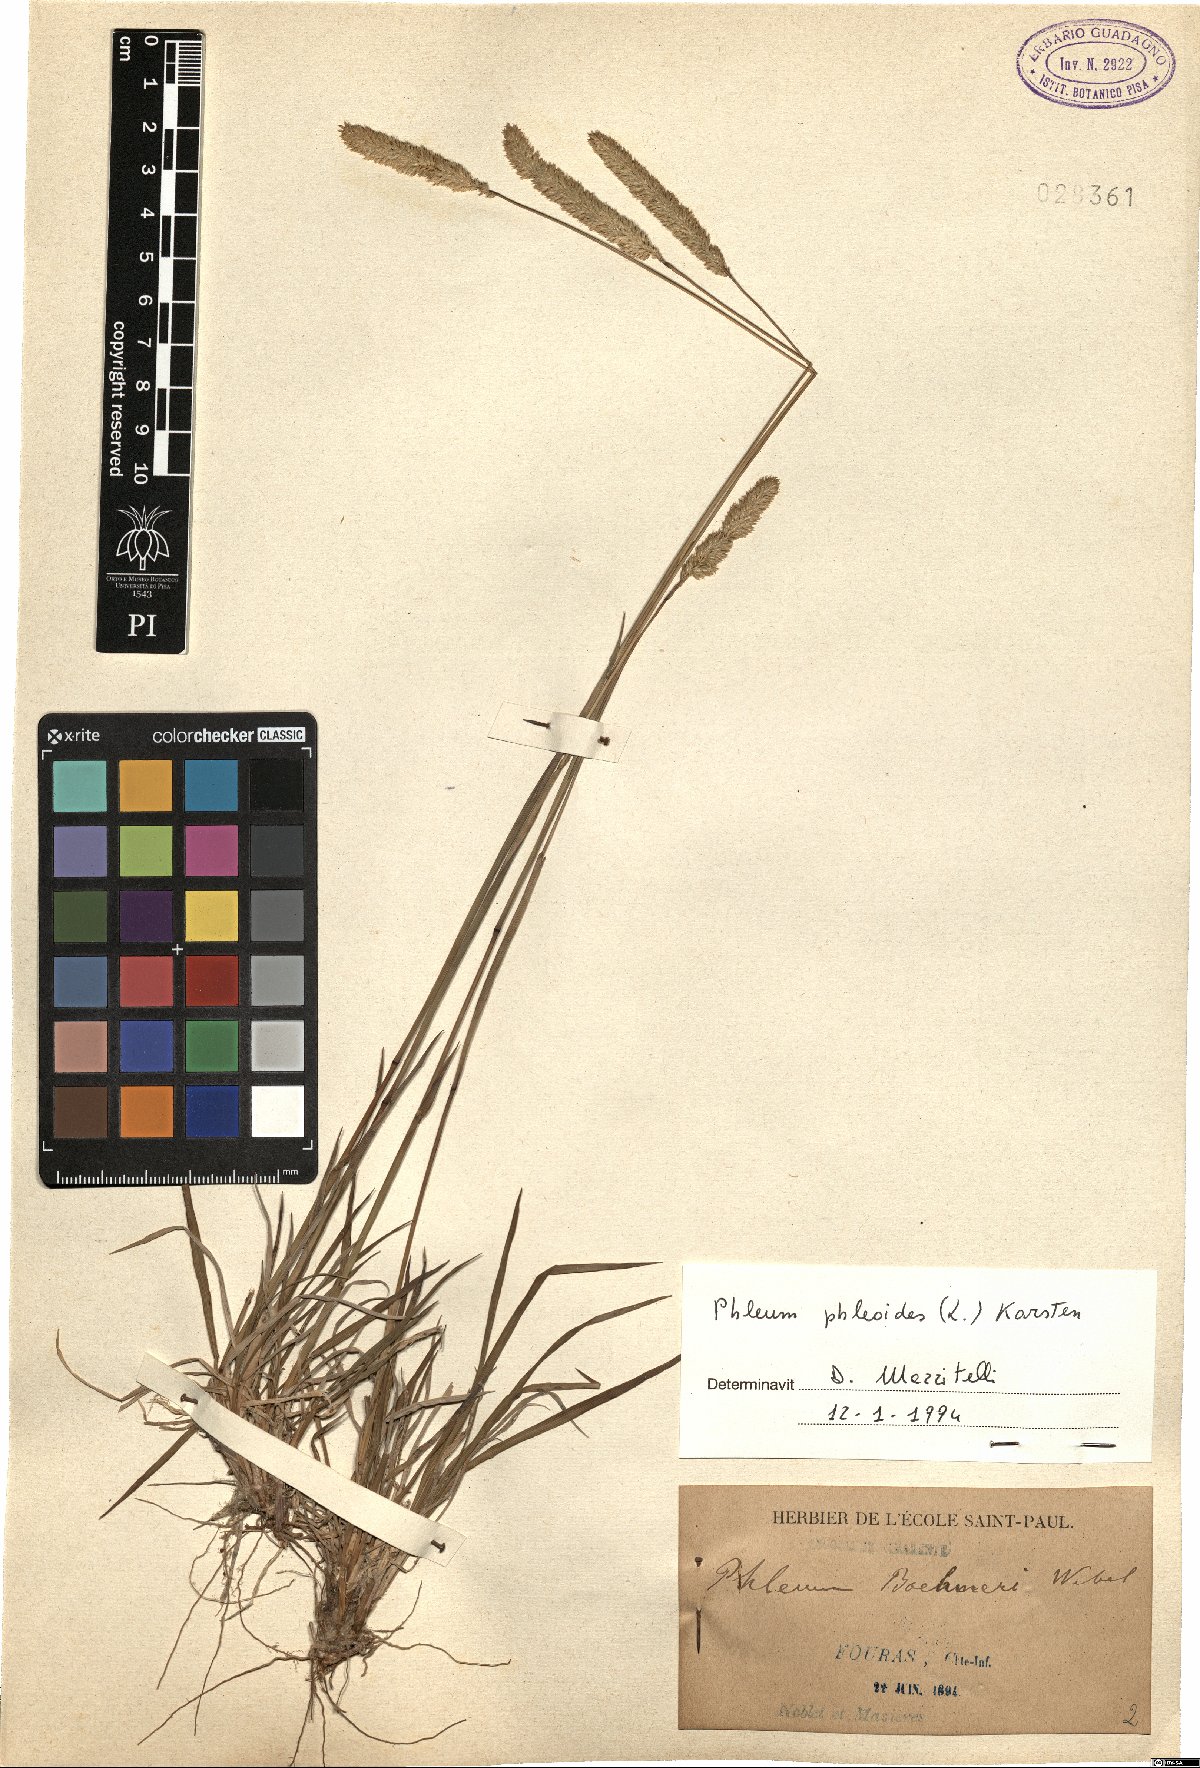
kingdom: Plantae
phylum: Tracheophyta
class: Liliopsida
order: Poales
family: Poaceae
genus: Phleum
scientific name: Phleum phleoides
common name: Purple-stem cat's-tail
